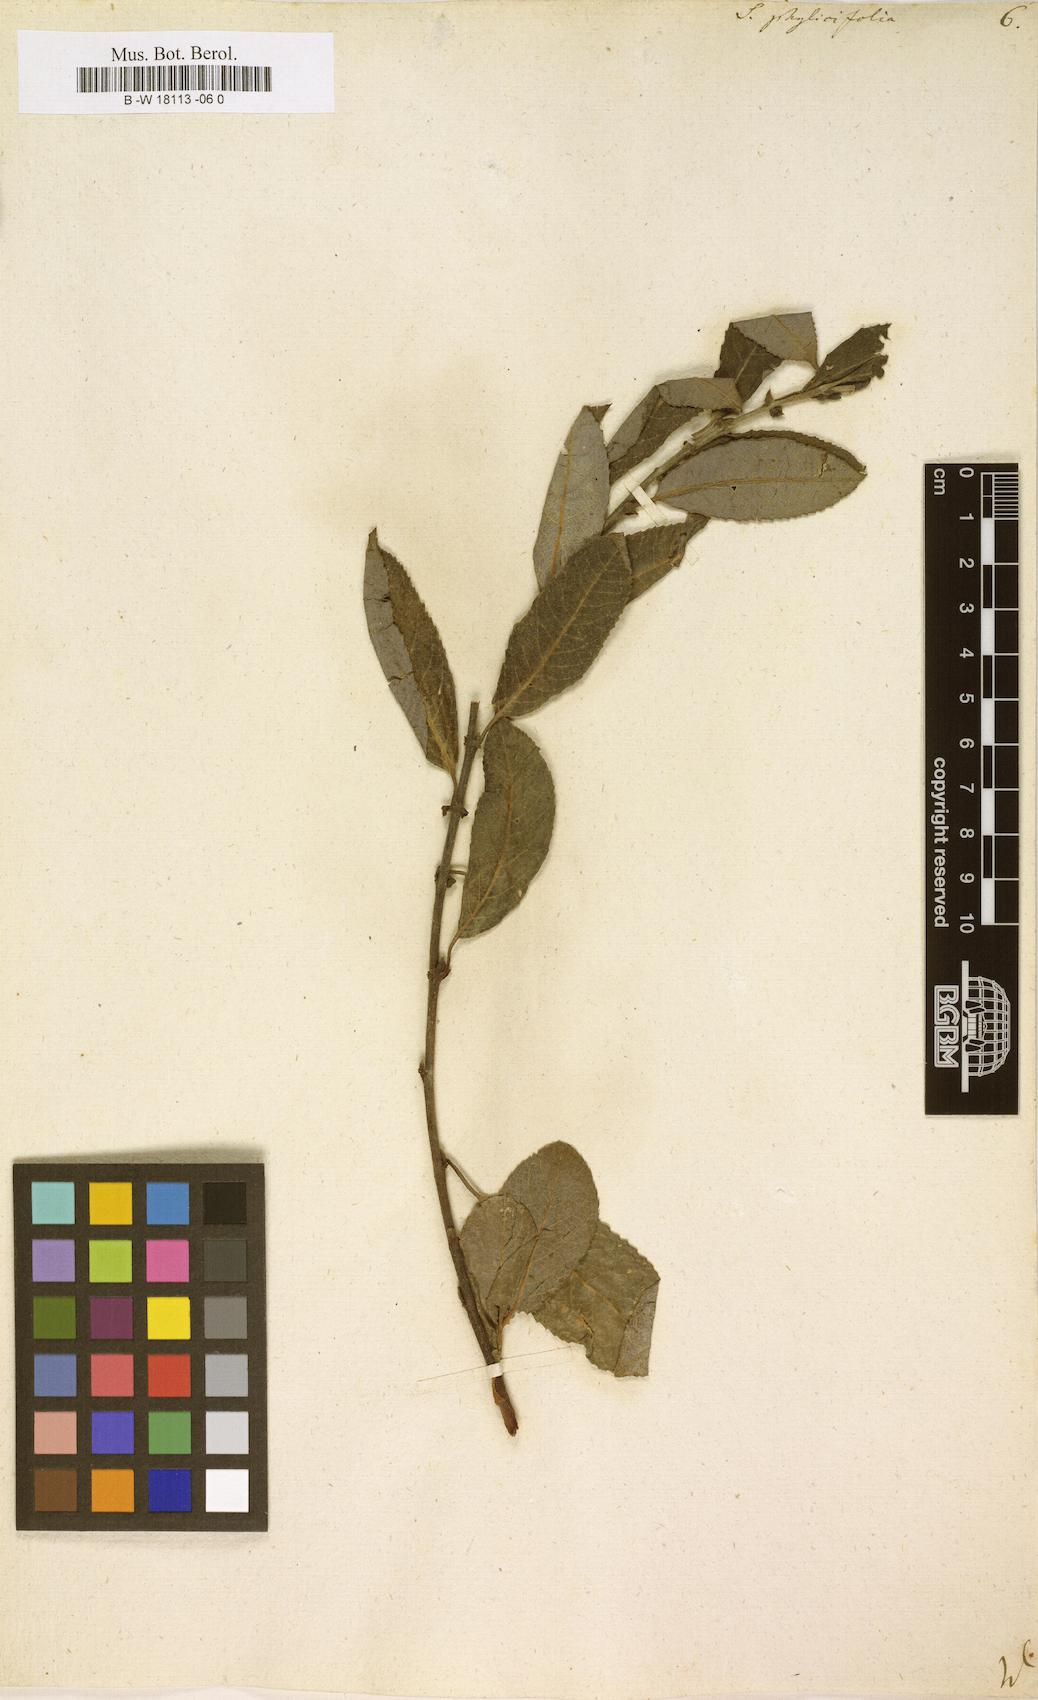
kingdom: Plantae
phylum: Tracheophyta
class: Magnoliopsida
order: Malpighiales
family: Salicaceae
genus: Salix
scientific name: Salix phylicifolia
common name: Tea-leaved willow
